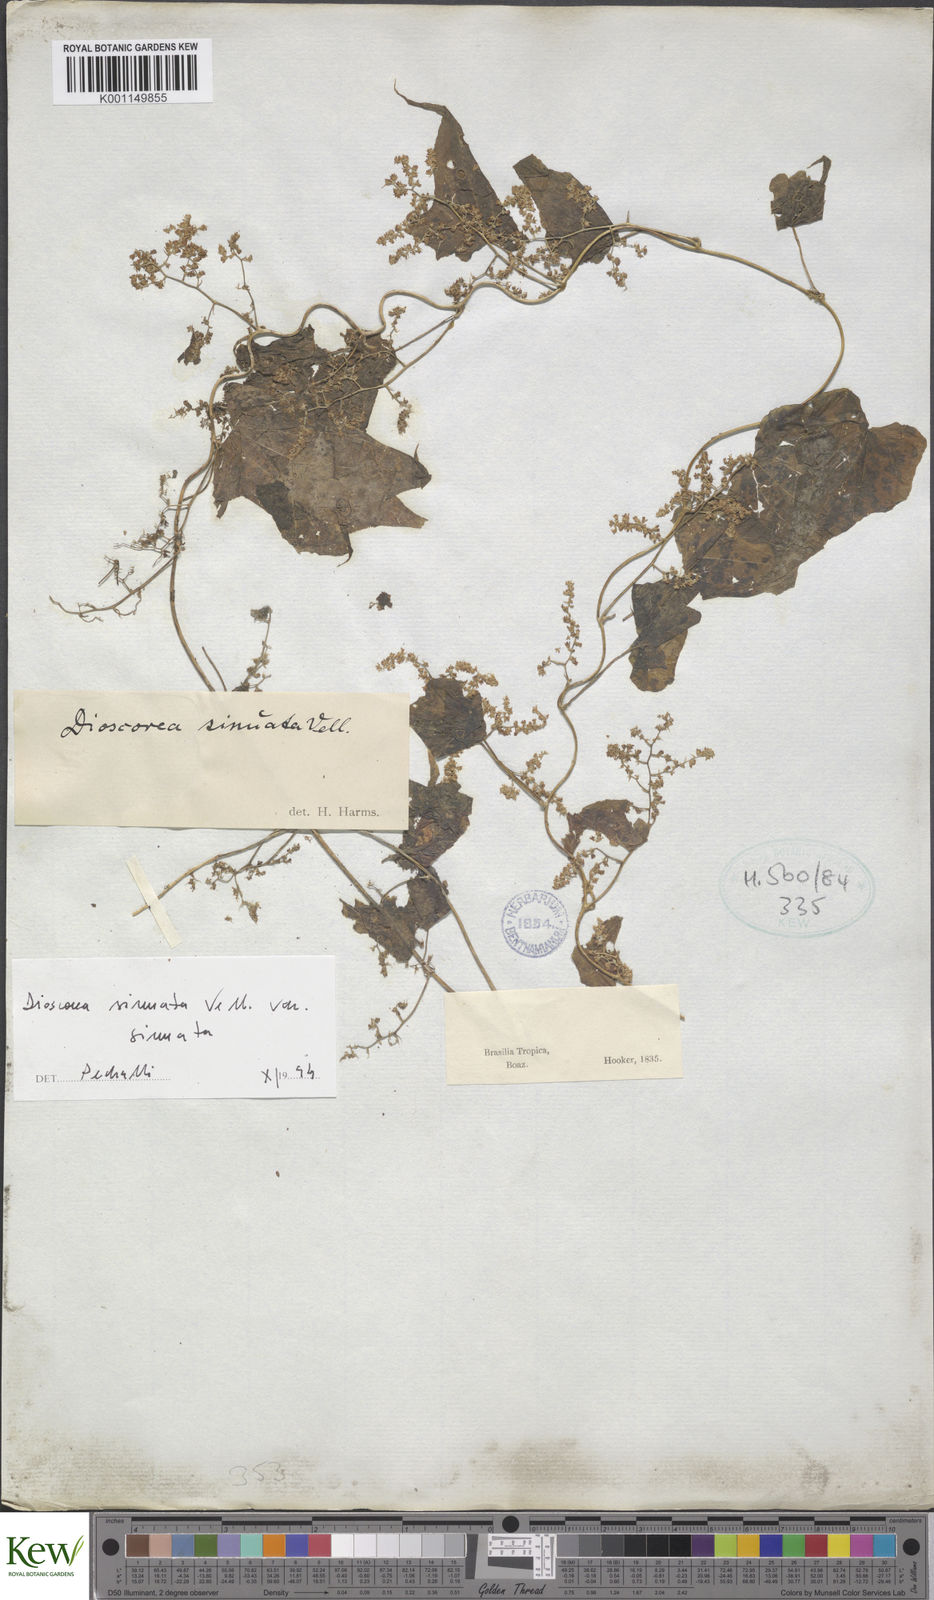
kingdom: Plantae
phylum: Tracheophyta
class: Liliopsida
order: Dioscoreales
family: Dioscoreaceae
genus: Dioscorea
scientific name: Dioscorea sinuata
